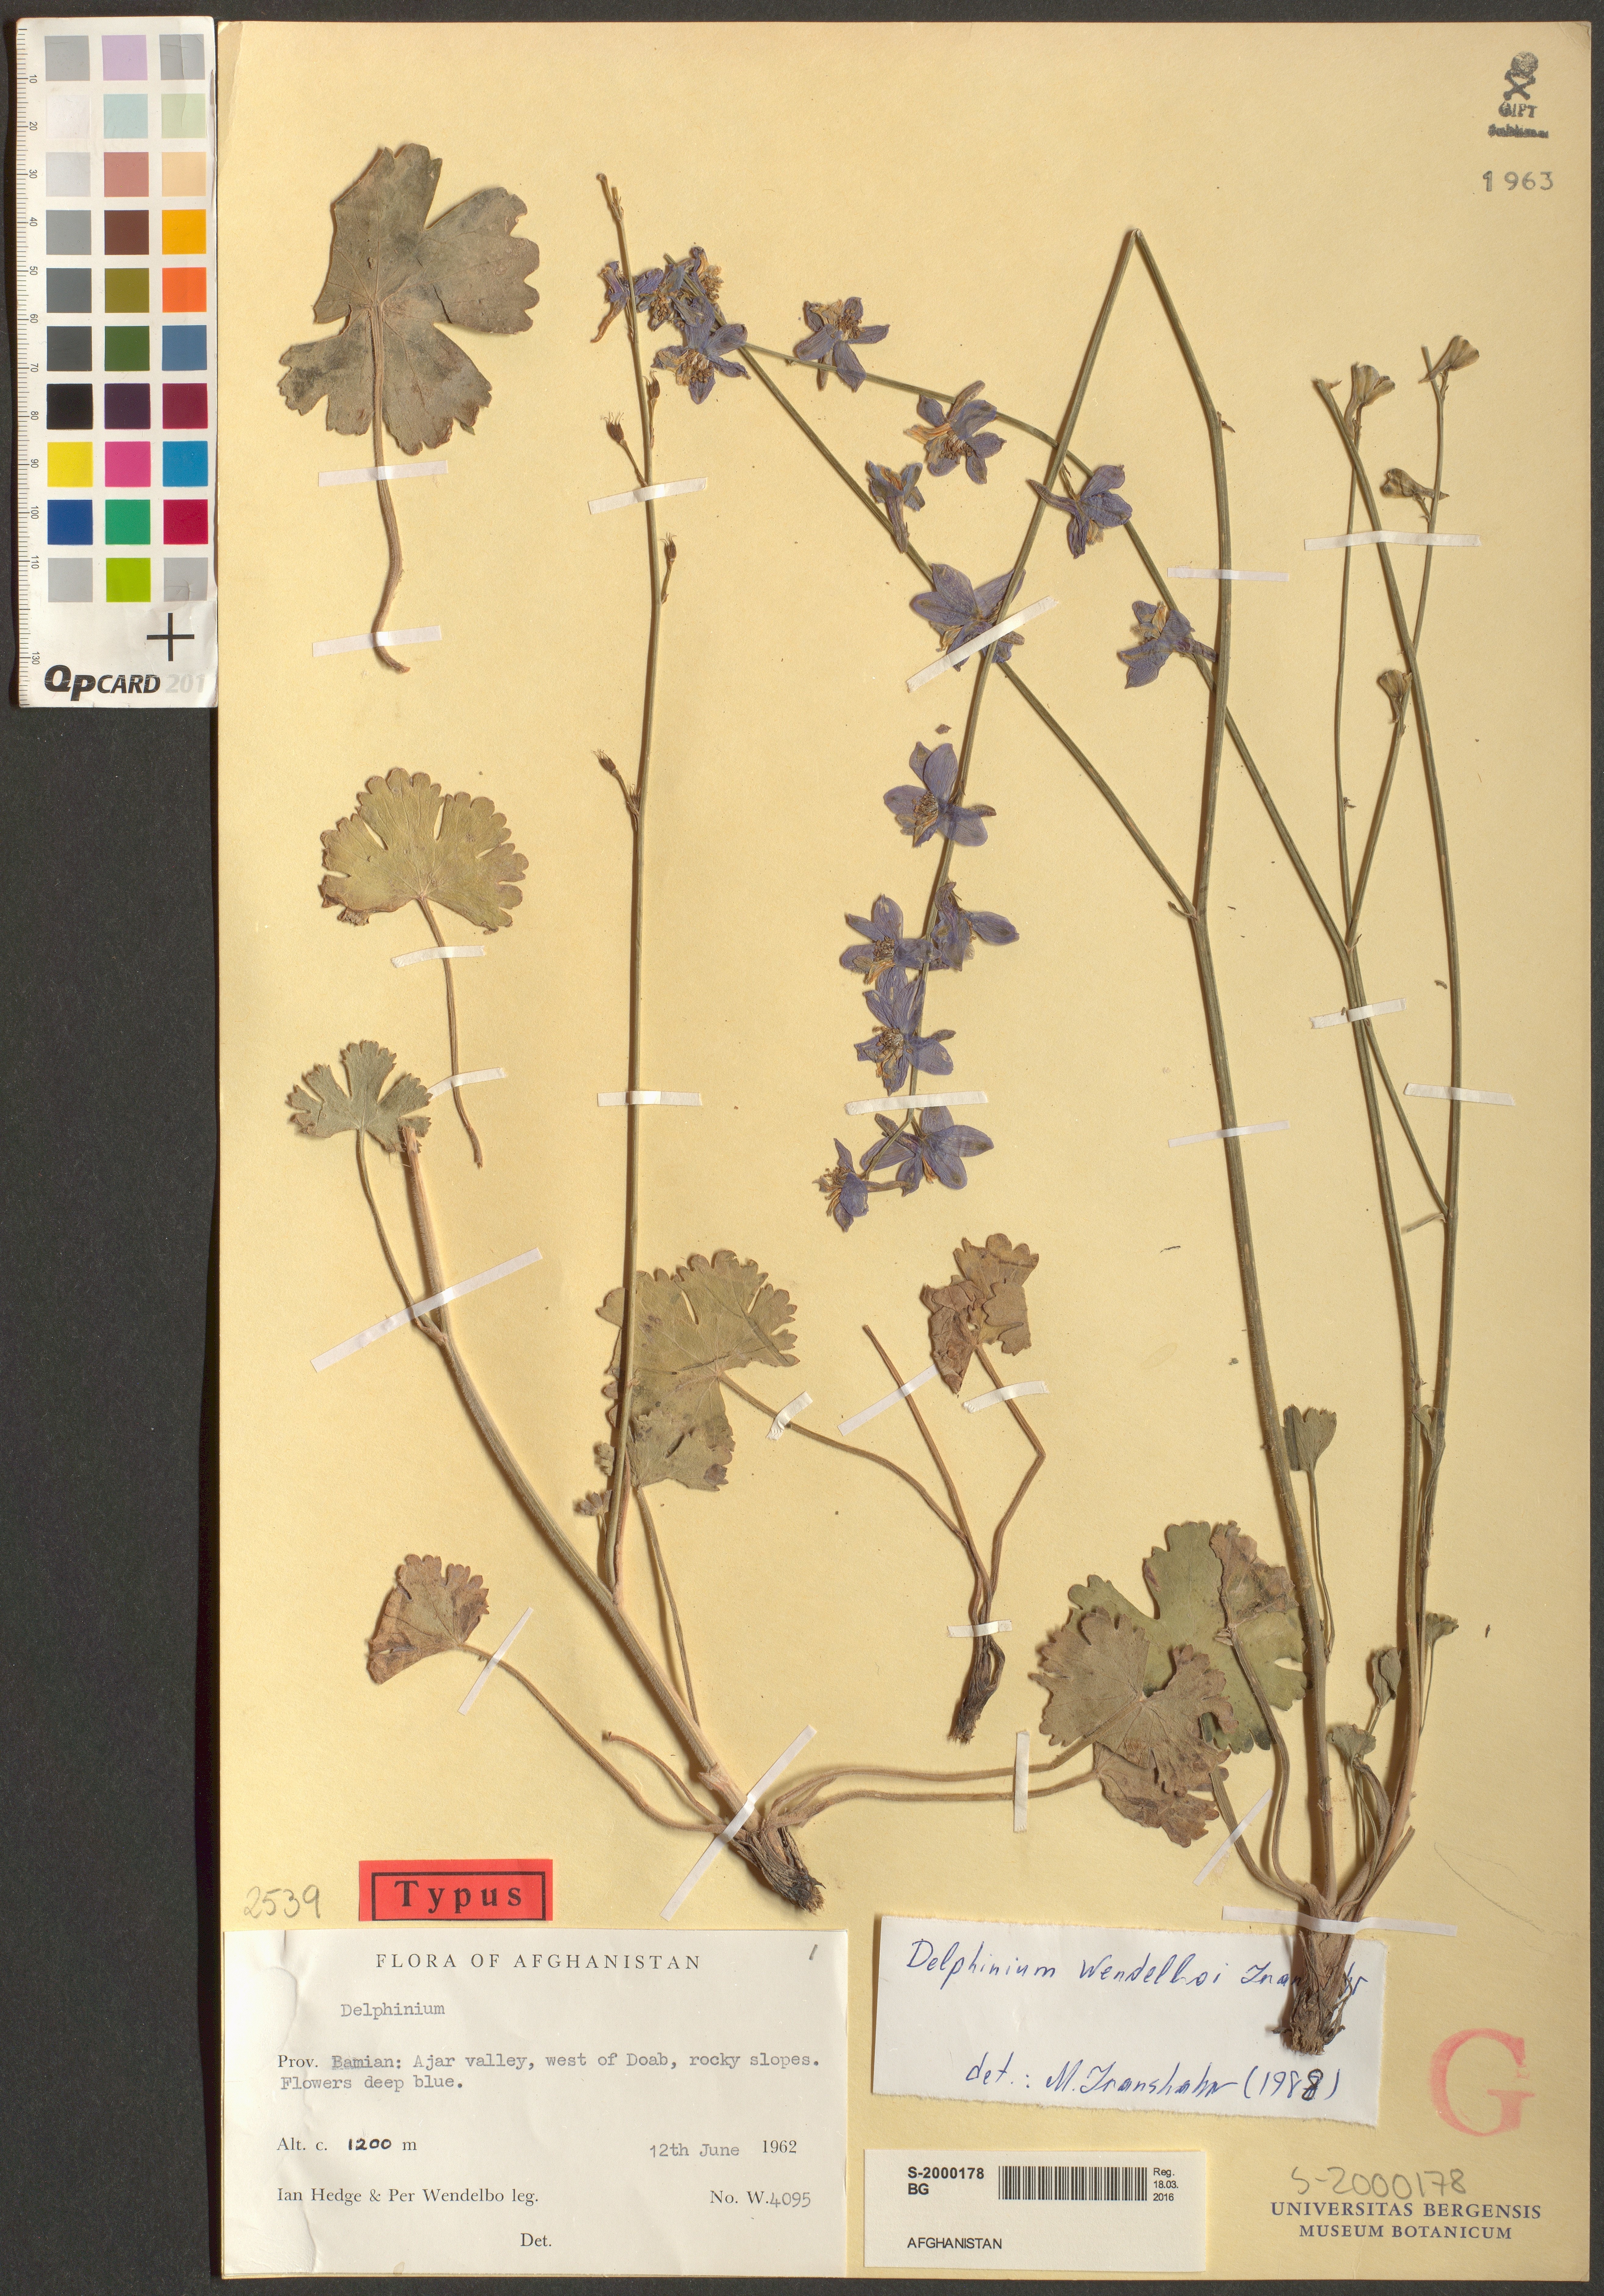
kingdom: Plantae
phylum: Tracheophyta
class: Magnoliopsida
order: Ranunculales
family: Ranunculaceae
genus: Delphinium
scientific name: Delphinium wendelboi
